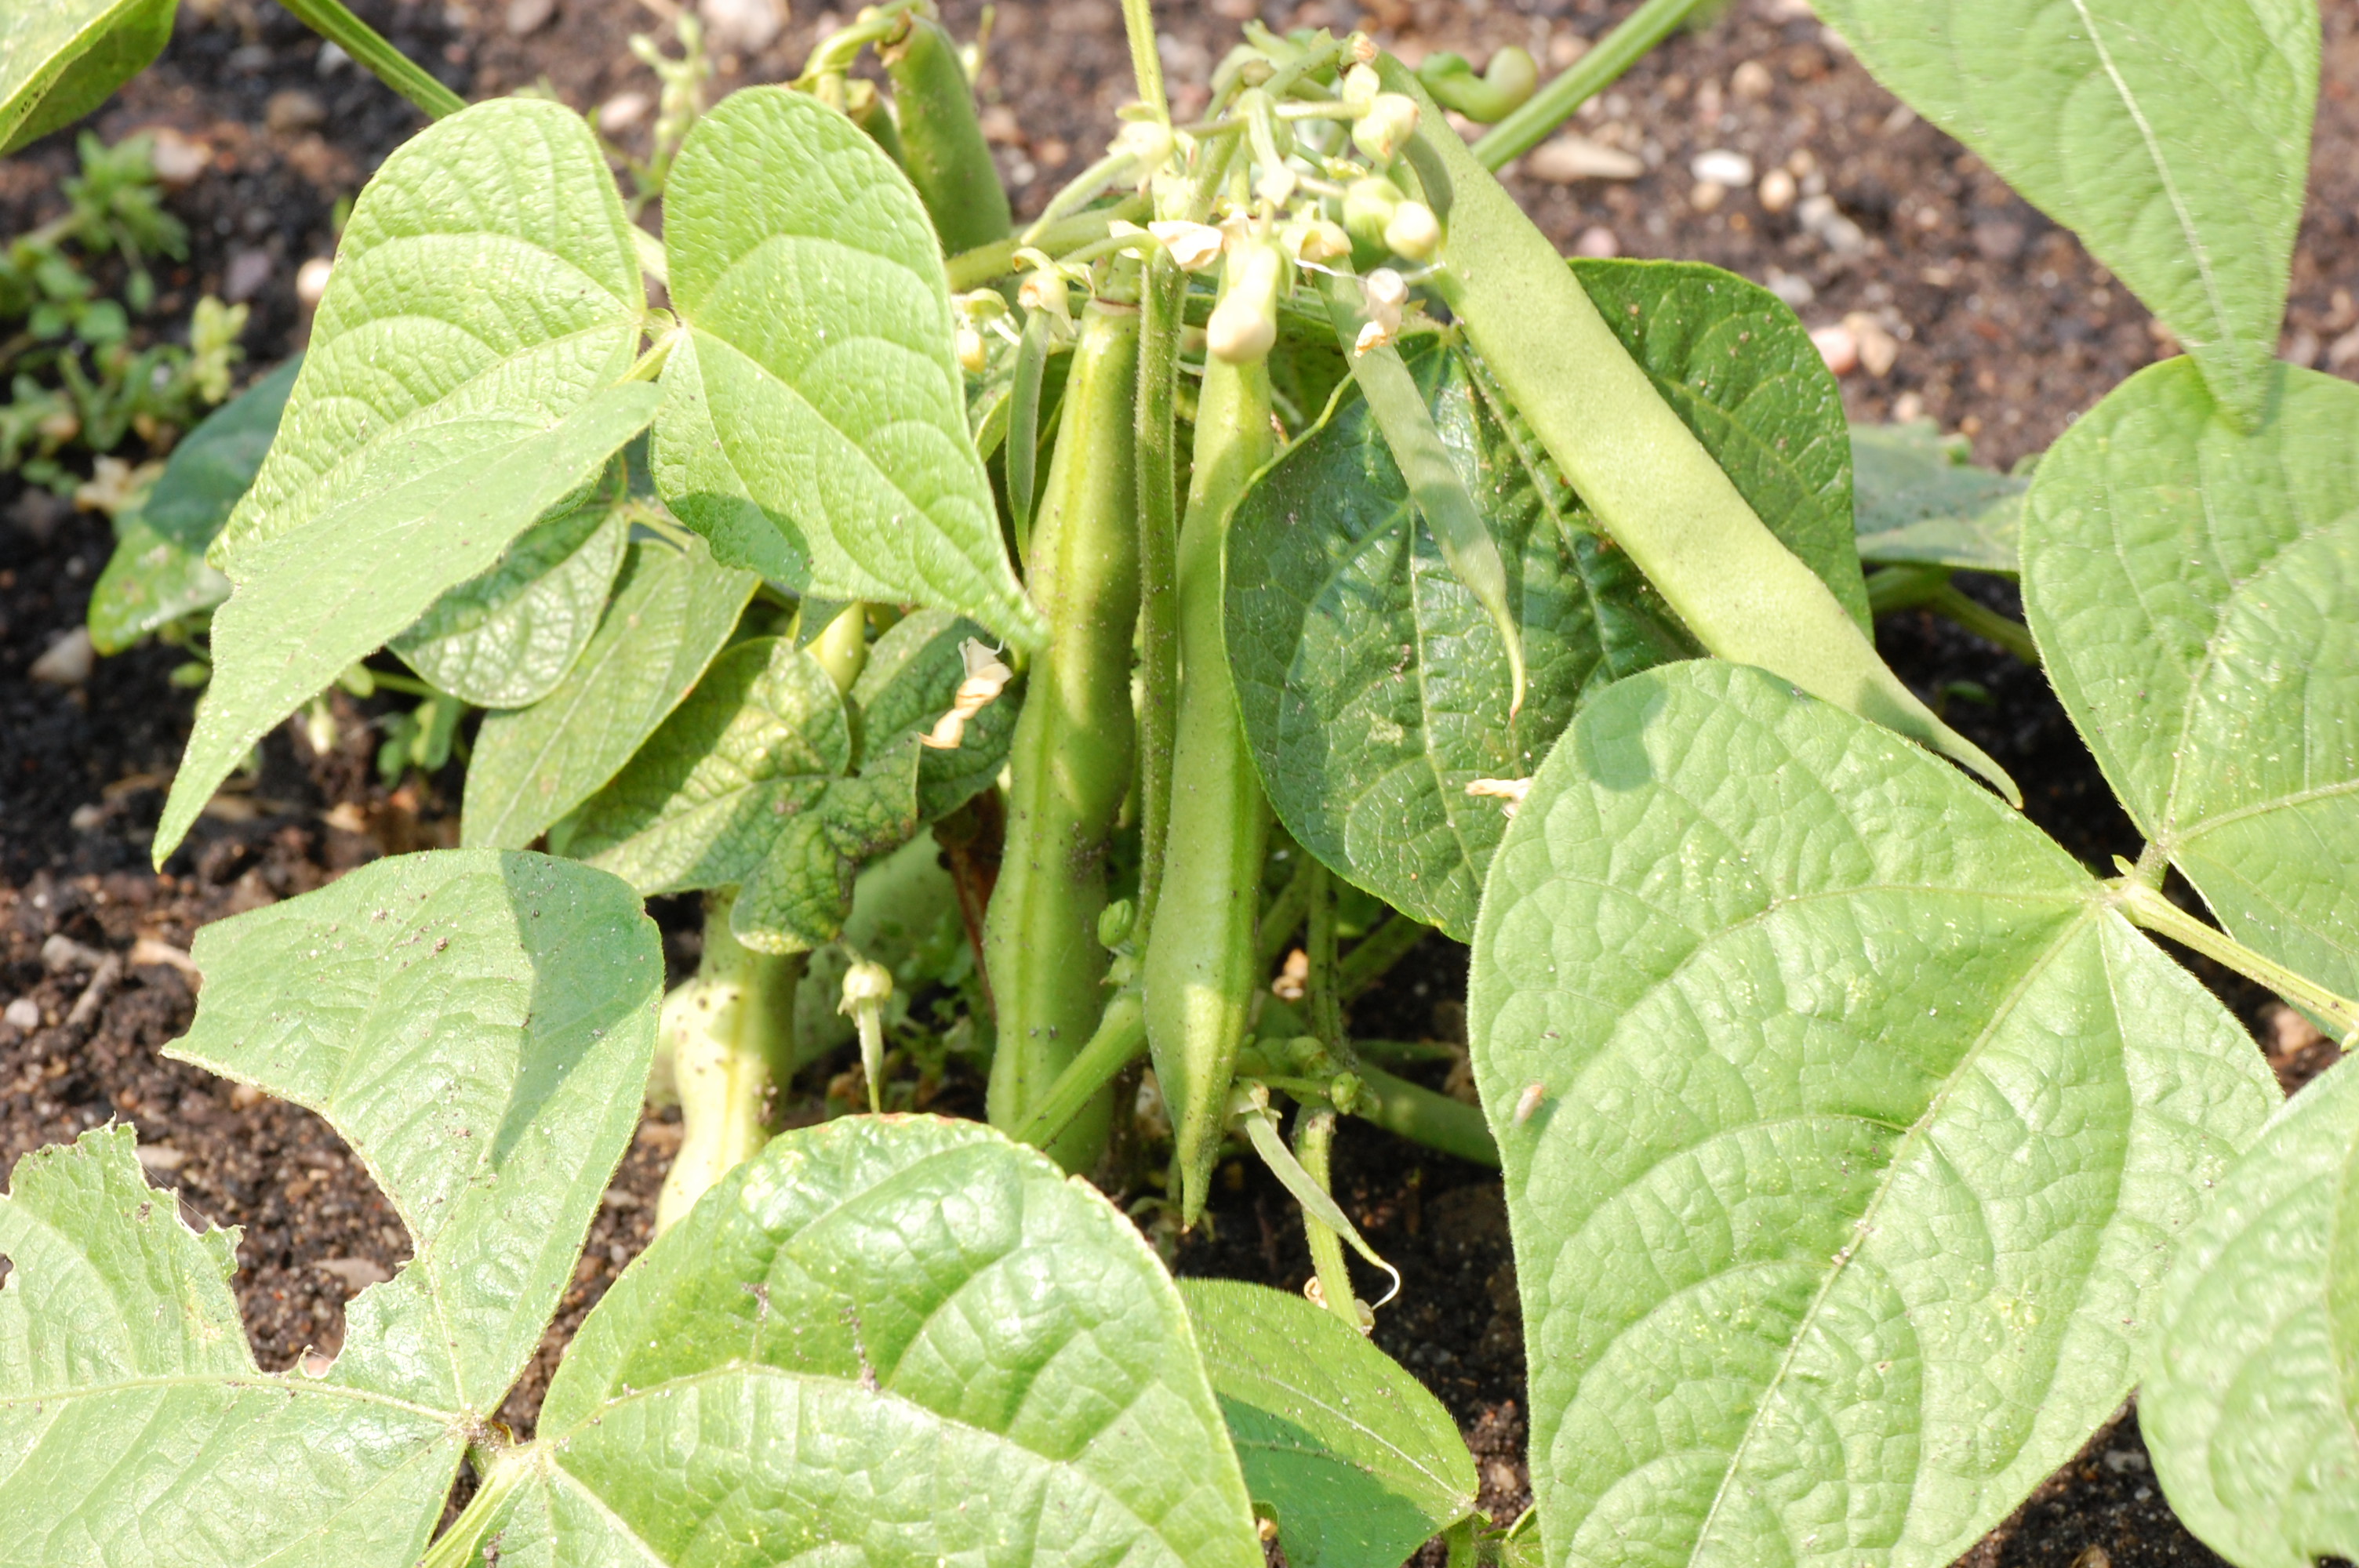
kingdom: Plantae
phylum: Tracheophyta
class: Magnoliopsida
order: Fabales
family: Fabaceae
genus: Phaseolus
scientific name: Phaseolus vulgaris
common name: Bean
